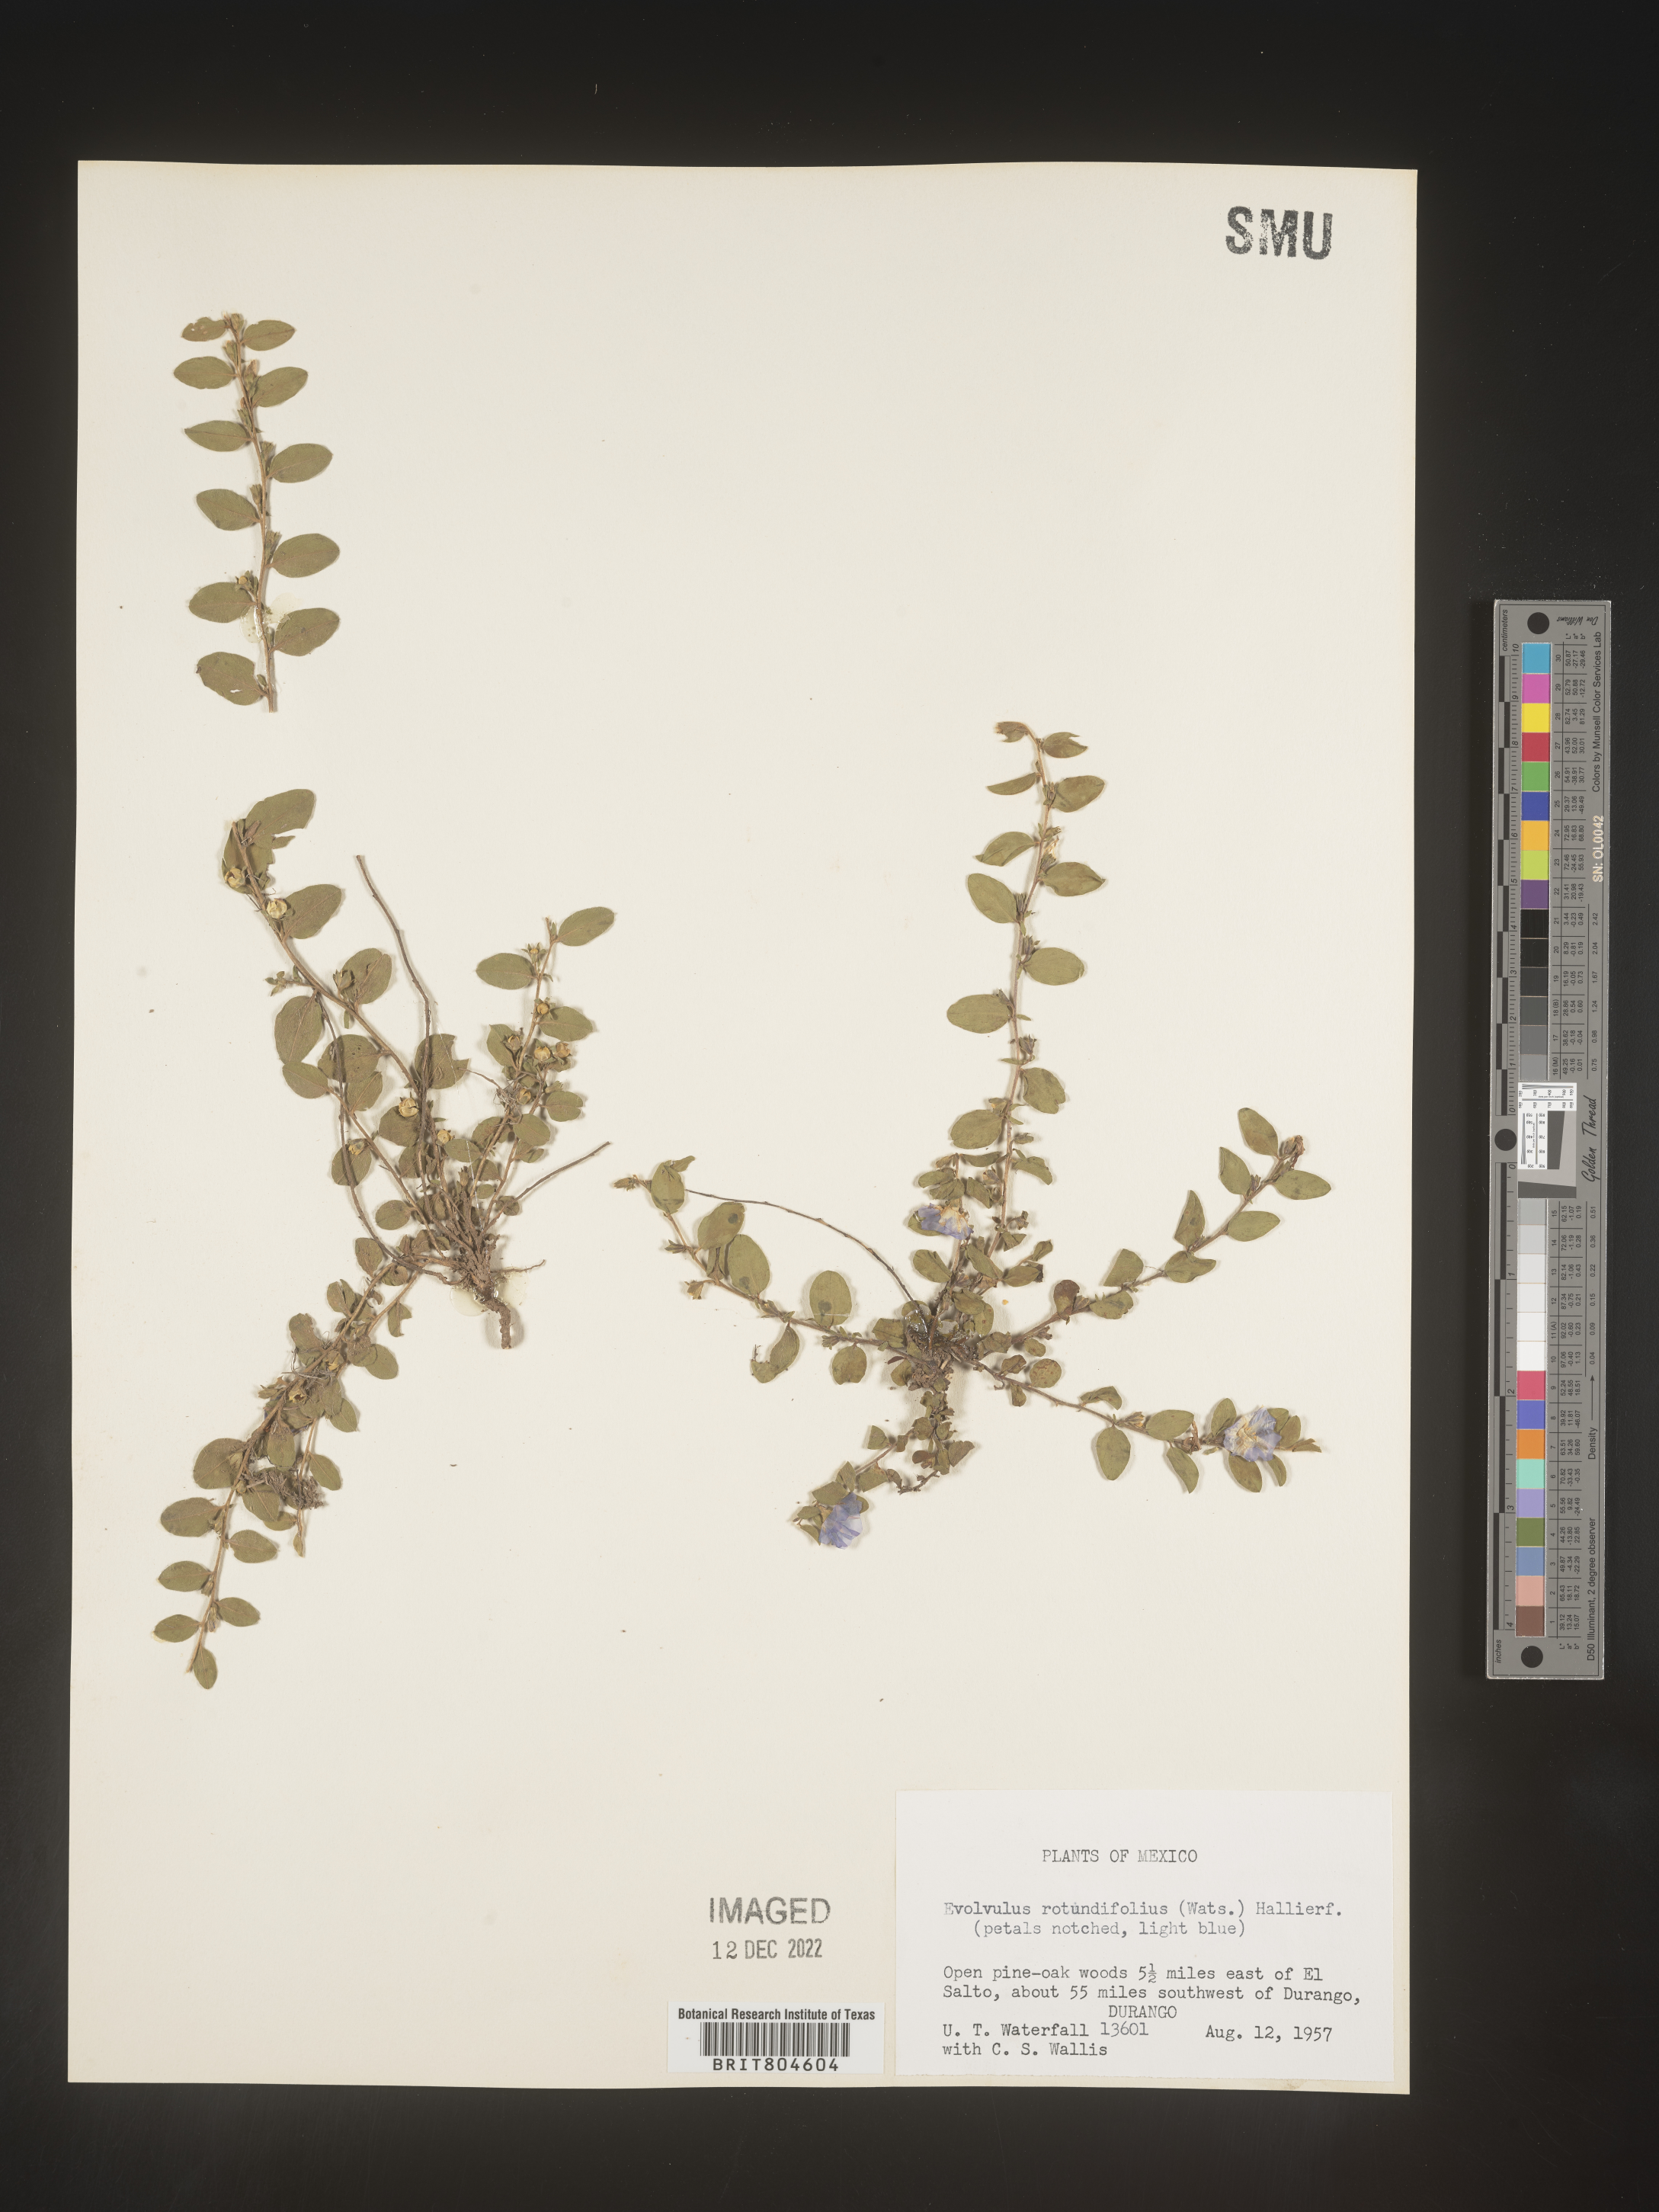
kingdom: Plantae
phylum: Tracheophyta
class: Magnoliopsida
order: Solanales
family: Convolvulaceae
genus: Evolvulus
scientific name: Evolvulus
